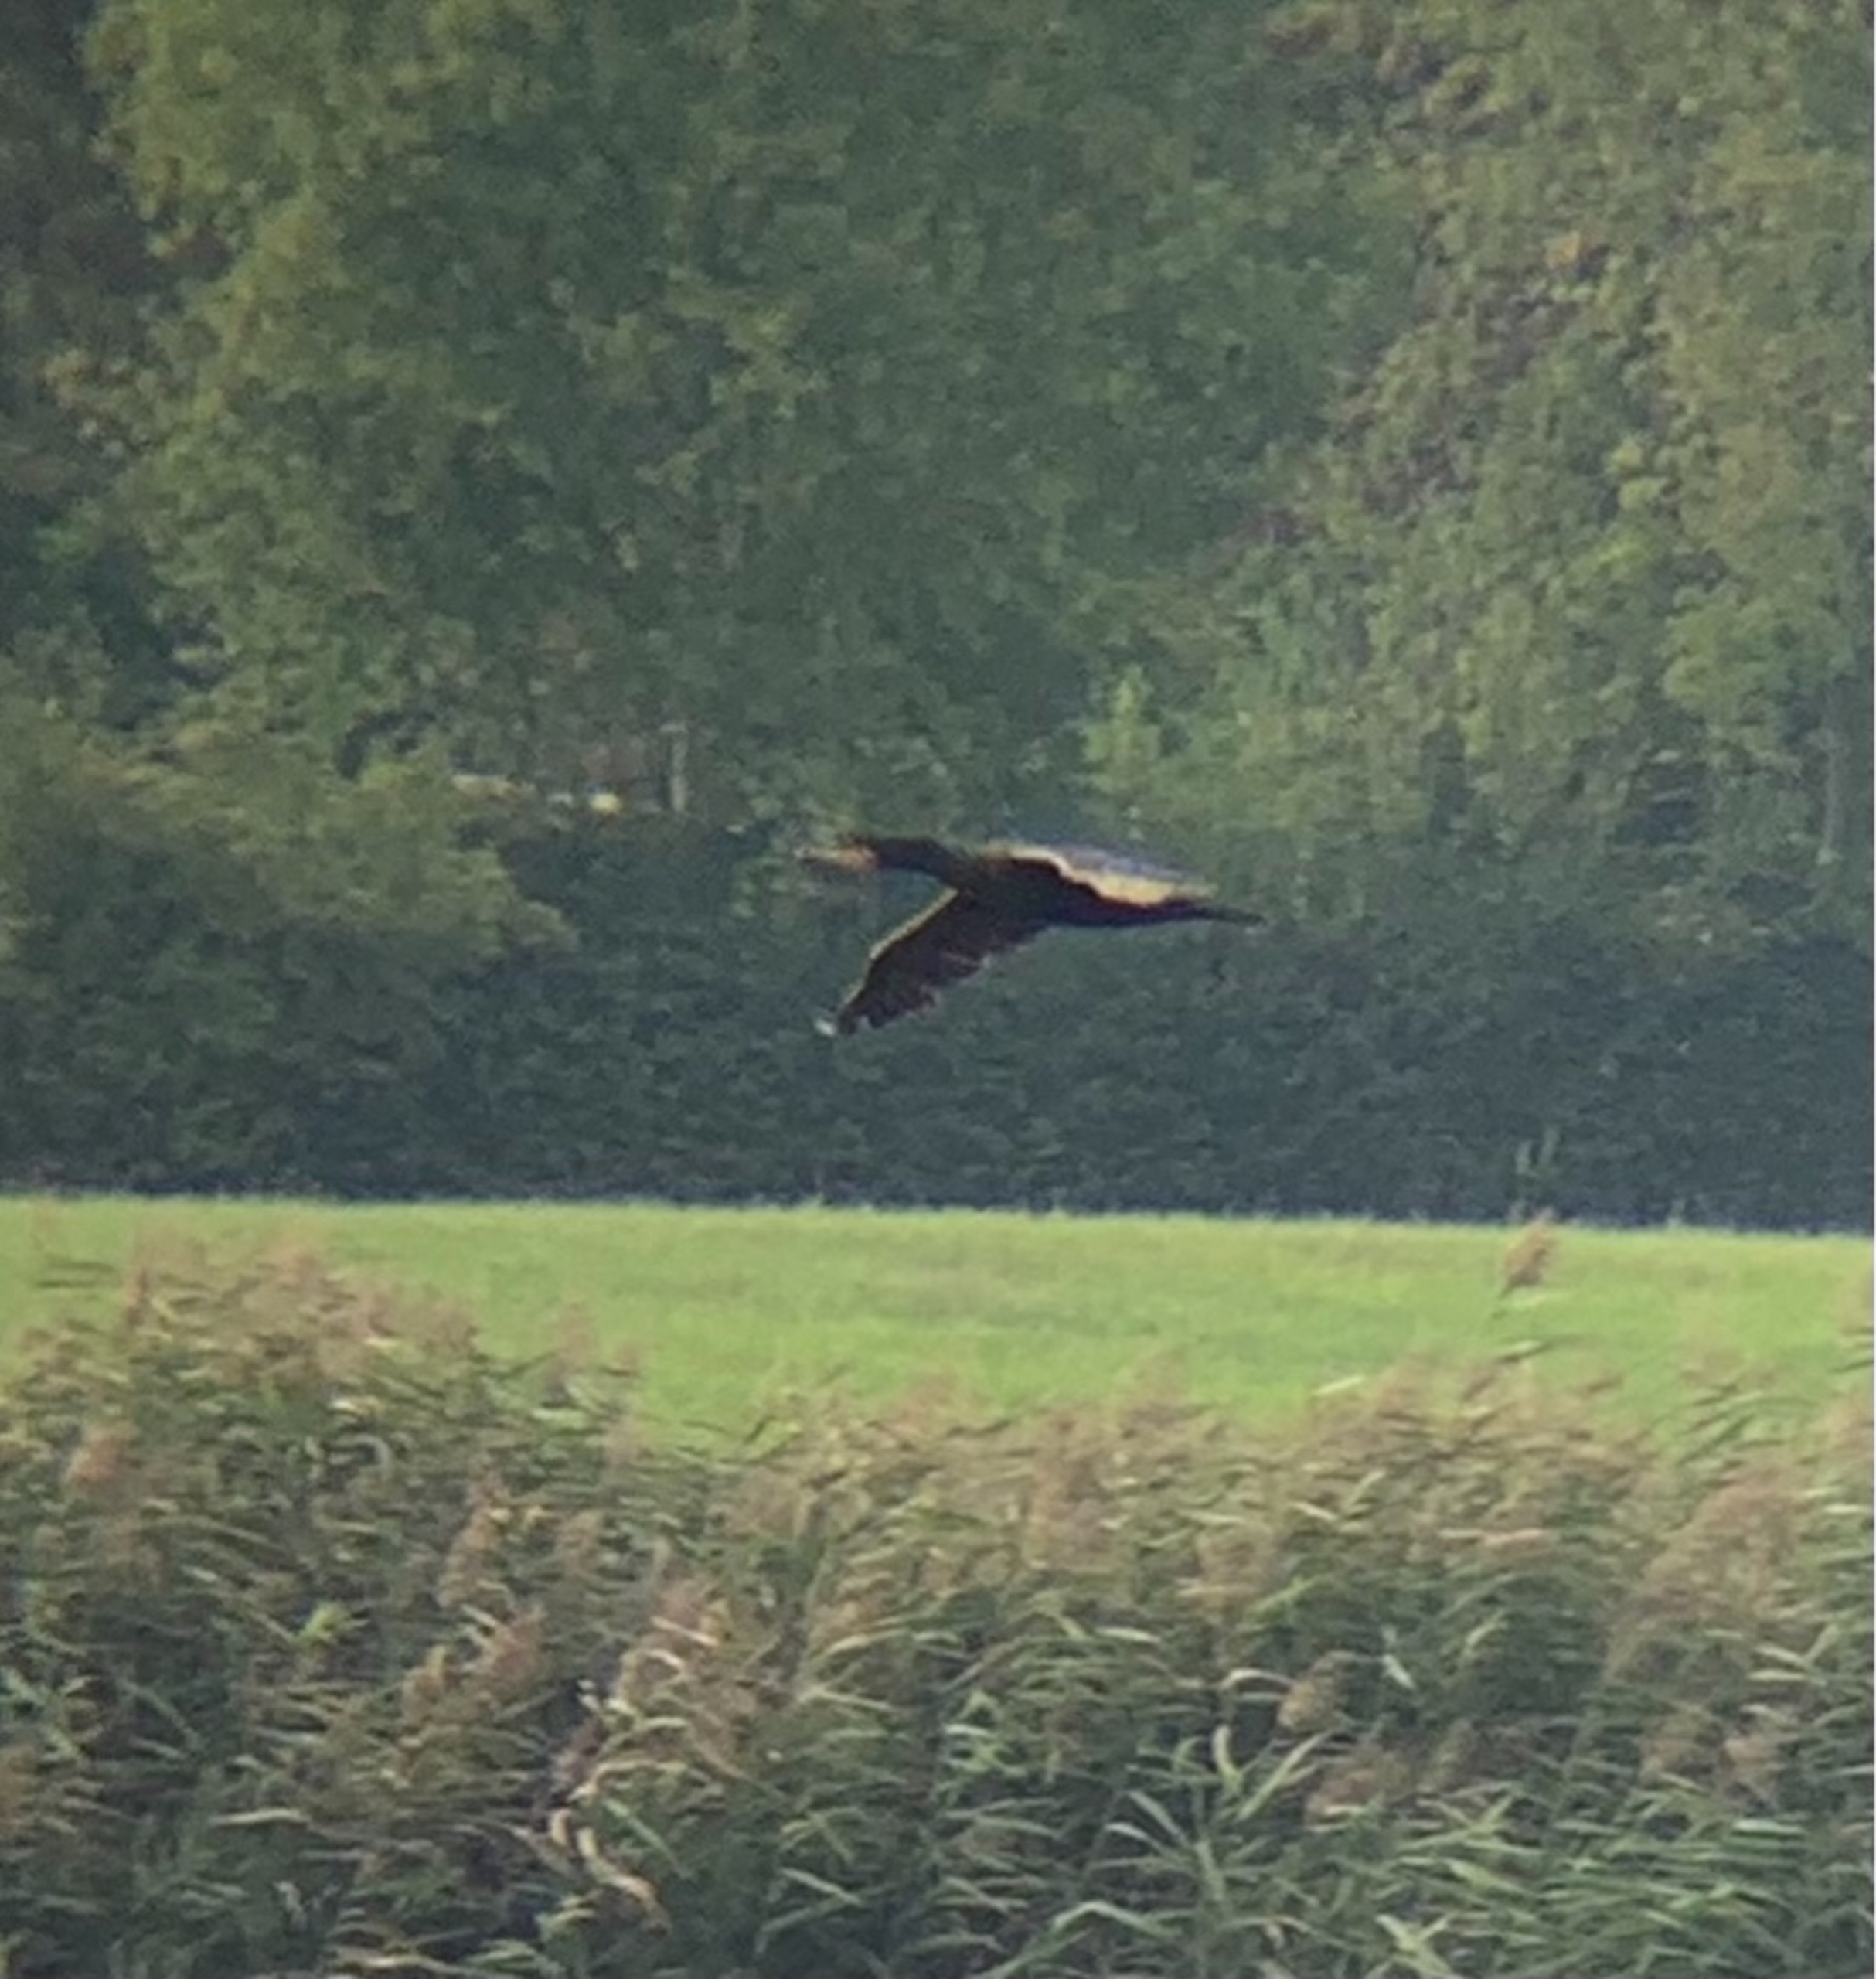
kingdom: Animalia
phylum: Chordata
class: Aves
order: Suliformes
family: Phalacrocoracidae
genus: Phalacrocorax
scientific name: Phalacrocorax carbo
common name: Skarv
